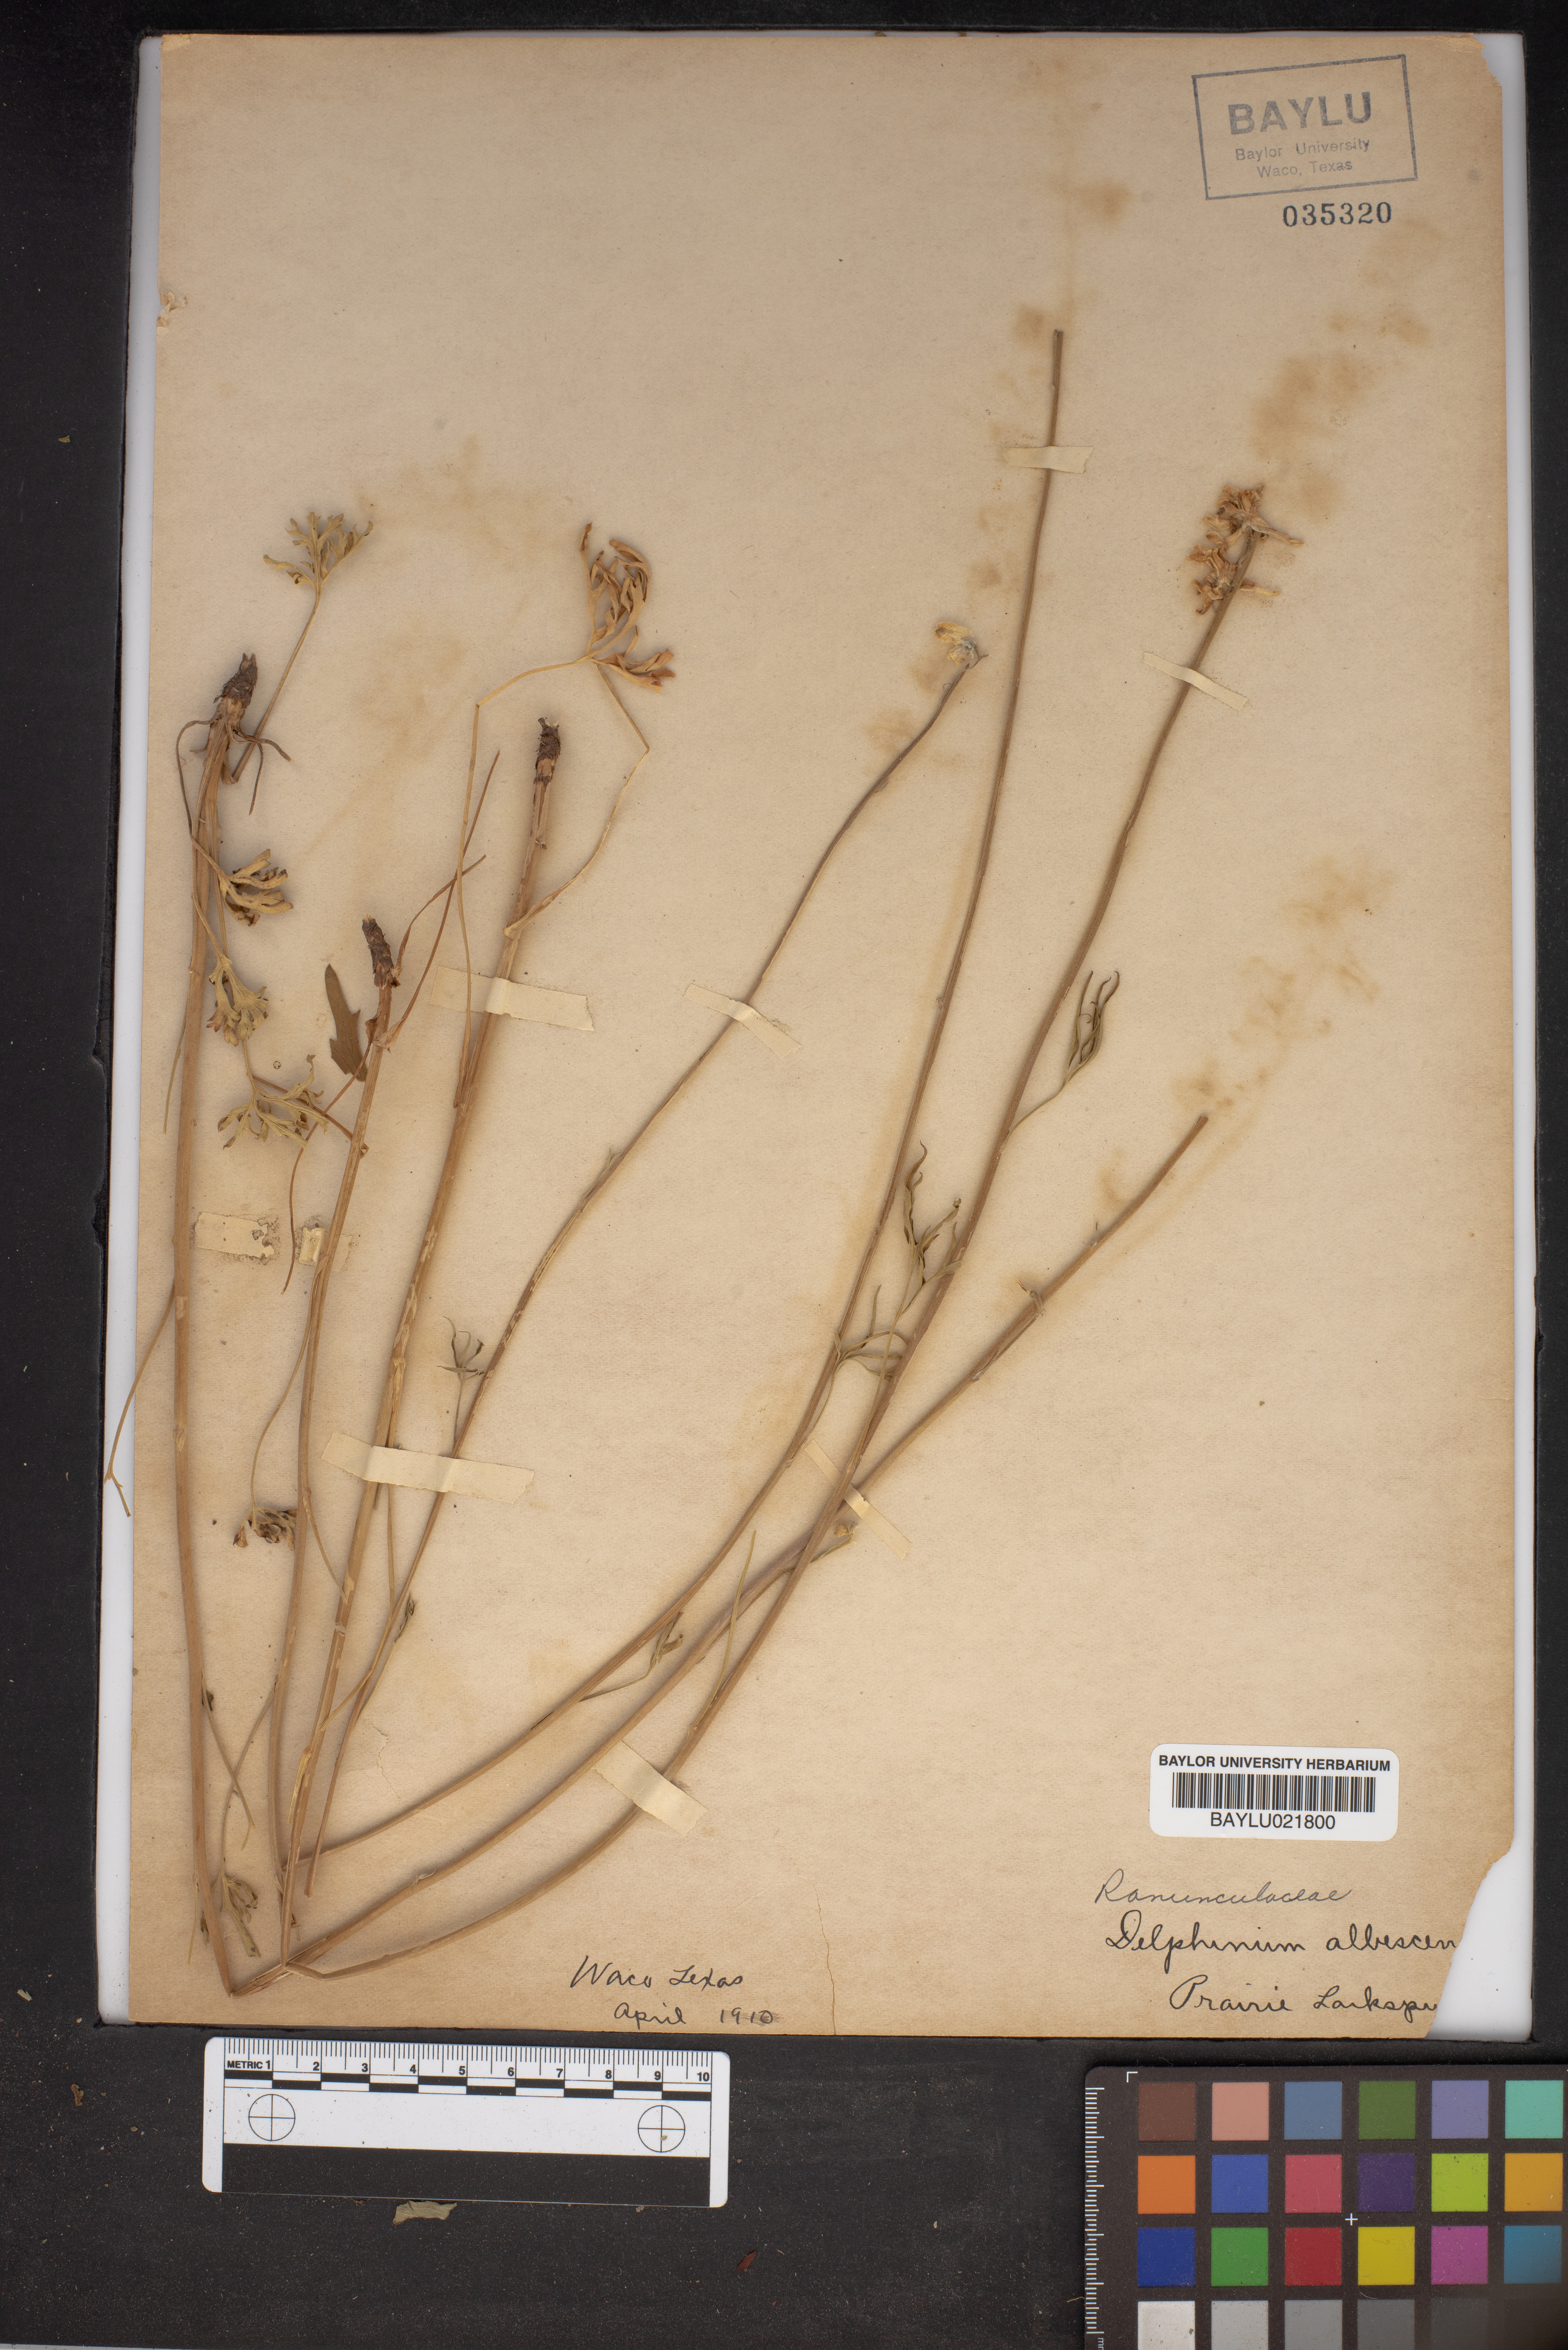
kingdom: Plantae
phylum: Tracheophyta
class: Magnoliopsida
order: Ranunculales
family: Ranunculaceae
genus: Delphinium
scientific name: Delphinium carolinianum
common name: Carolina larkspur
